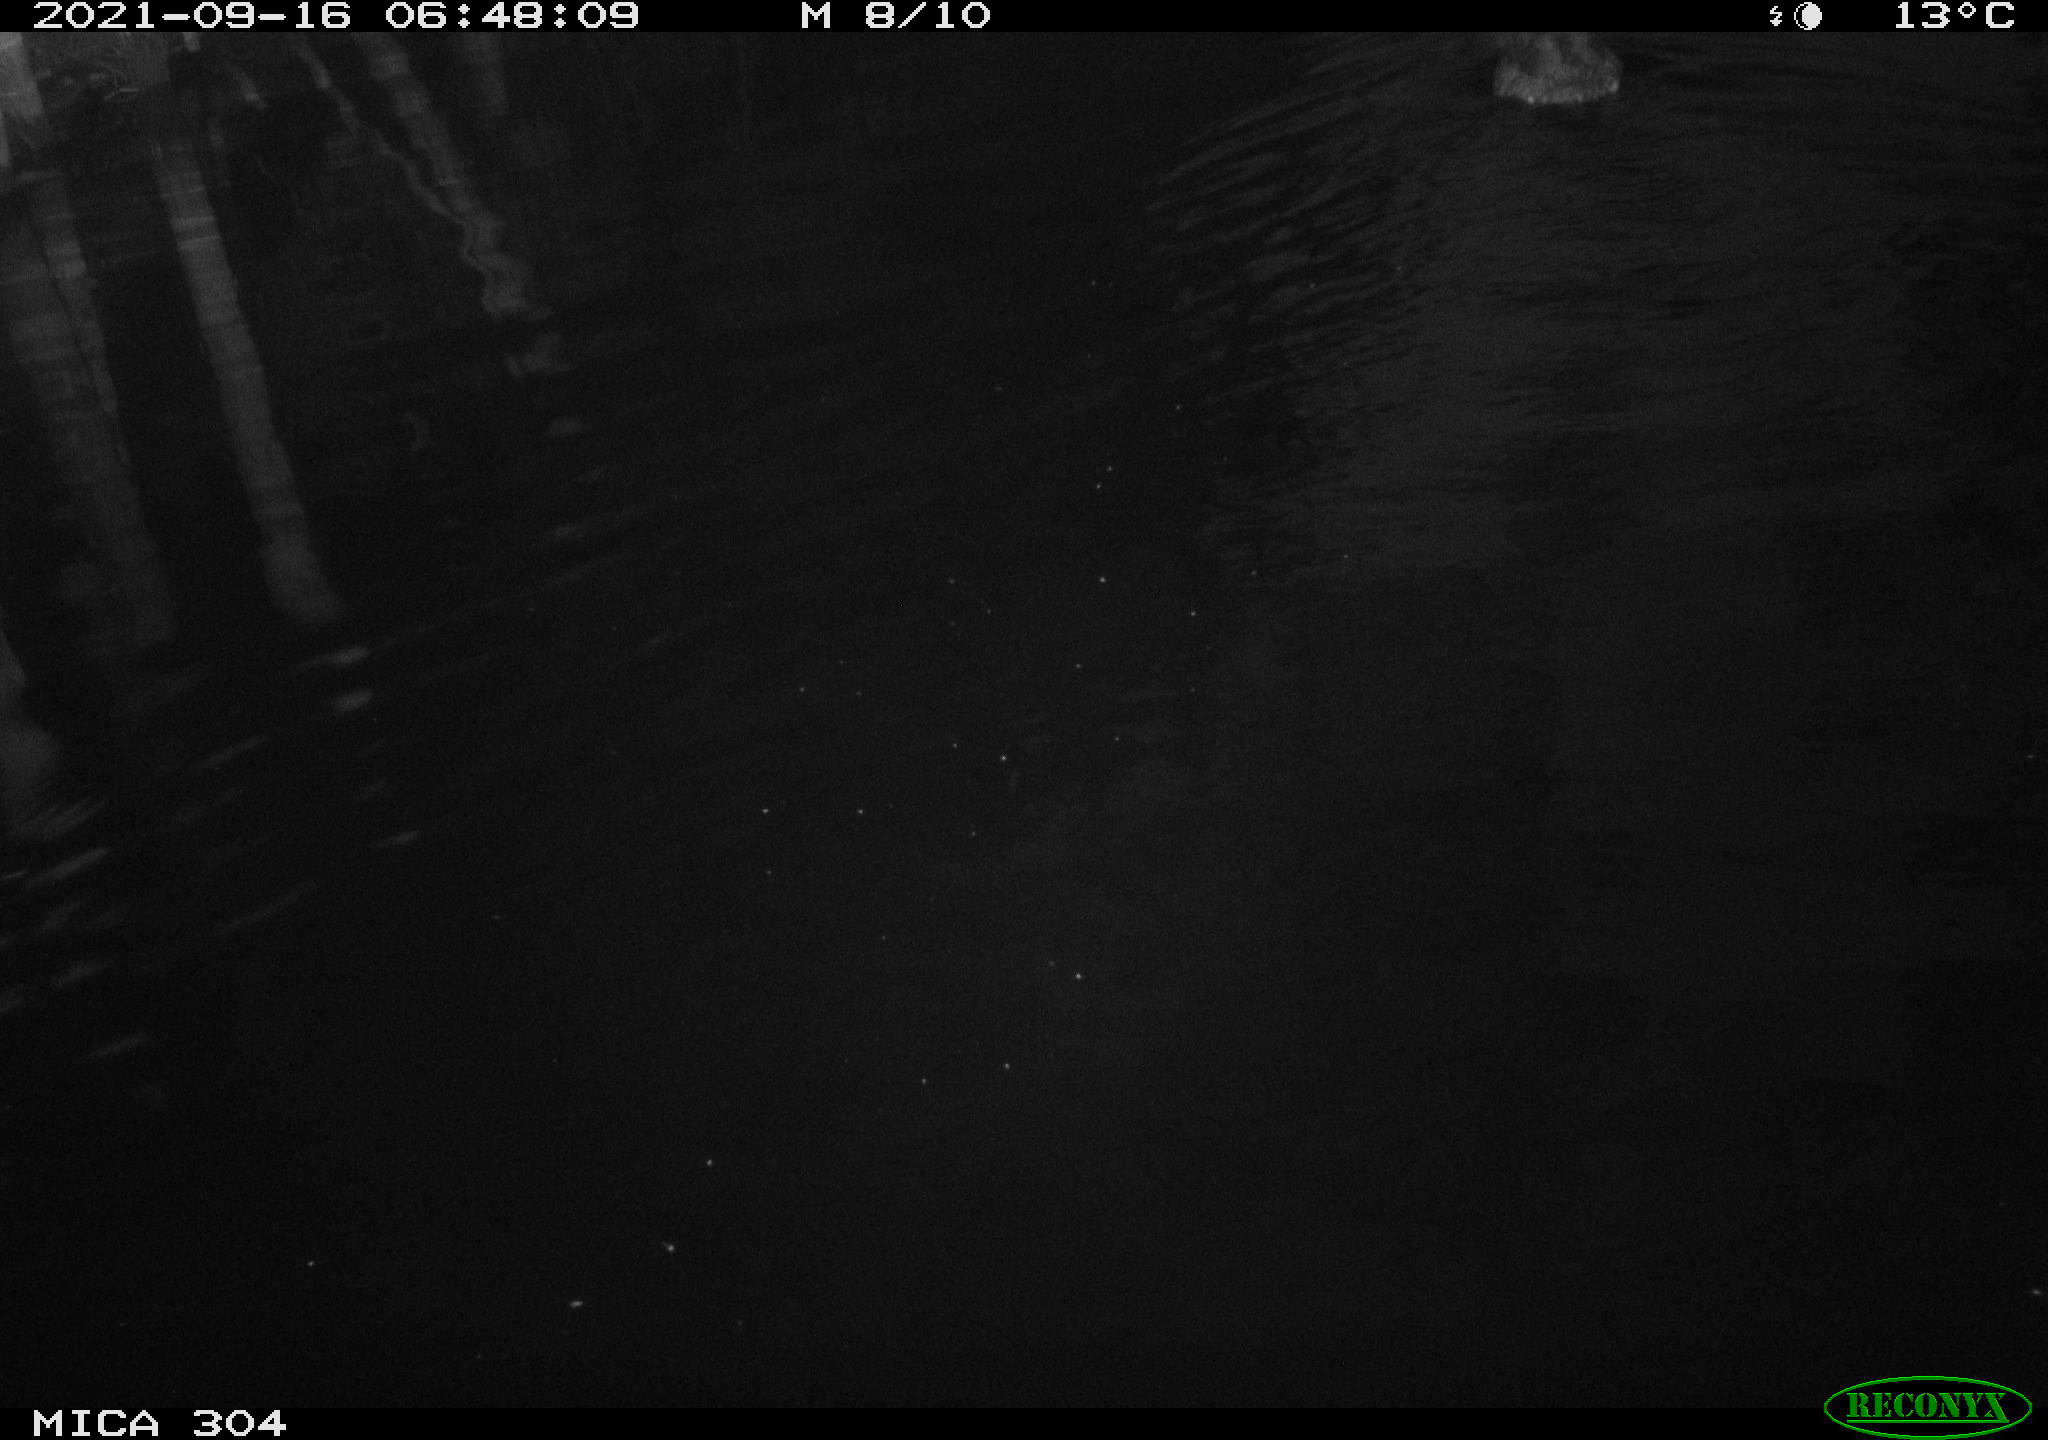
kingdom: Animalia
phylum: Chordata
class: Aves
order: Anseriformes
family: Anatidae
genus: Anas
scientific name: Anas platyrhynchos
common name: Mallard
